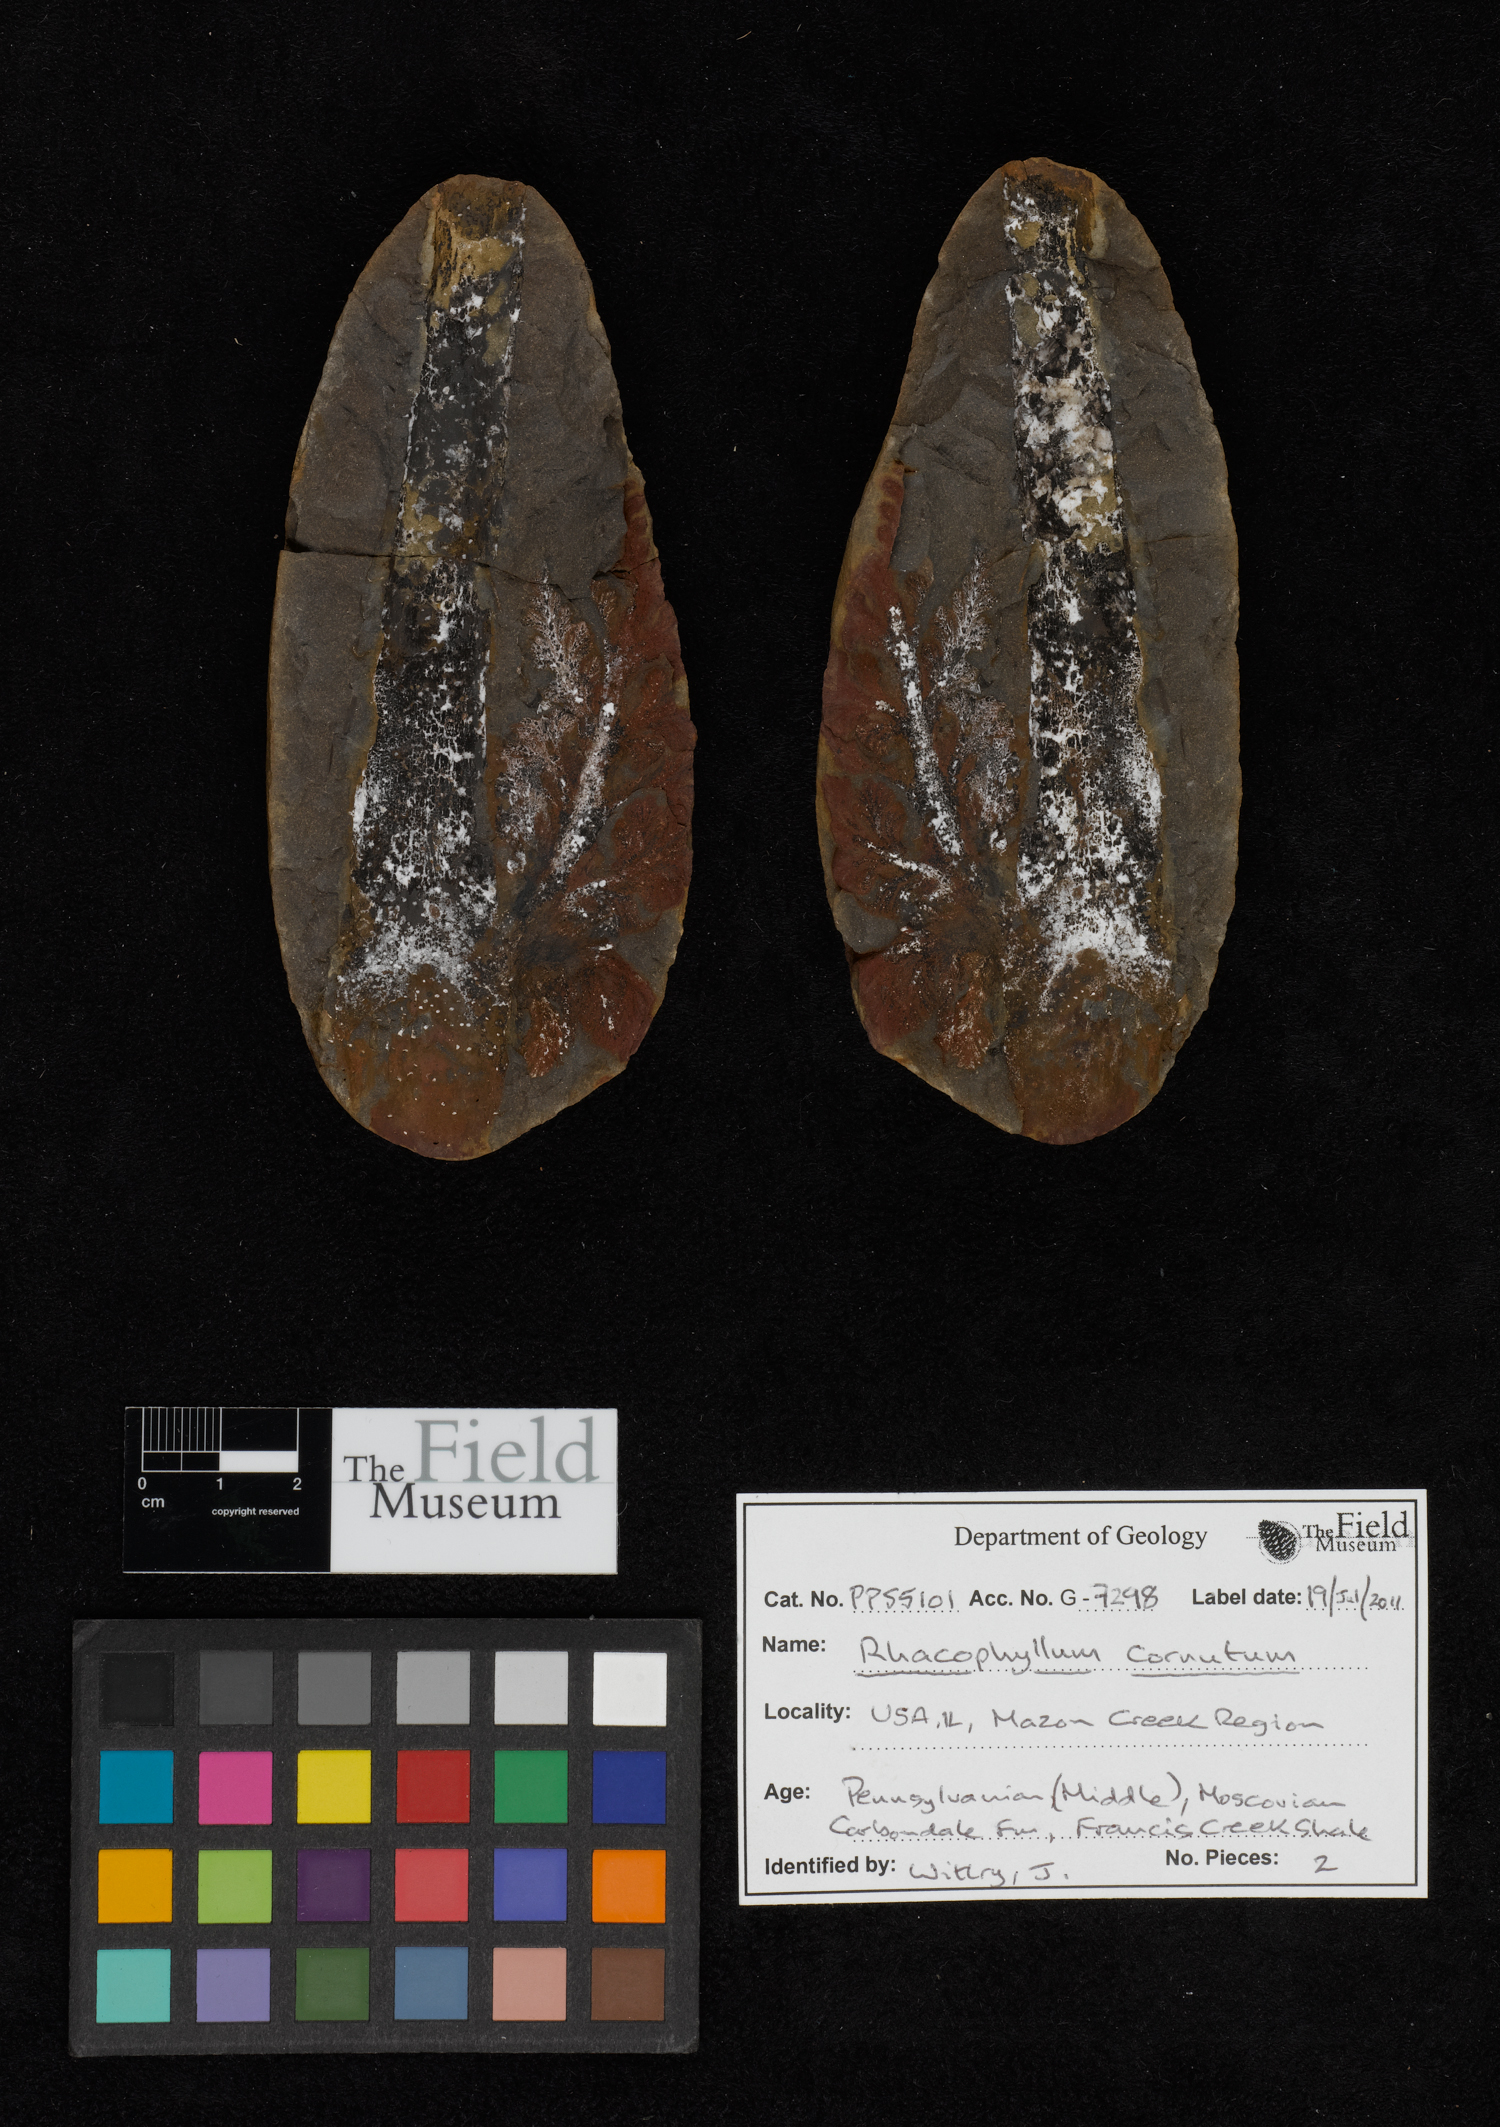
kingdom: Plantae
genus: Rhacophyllum
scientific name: Rhacophyllum
